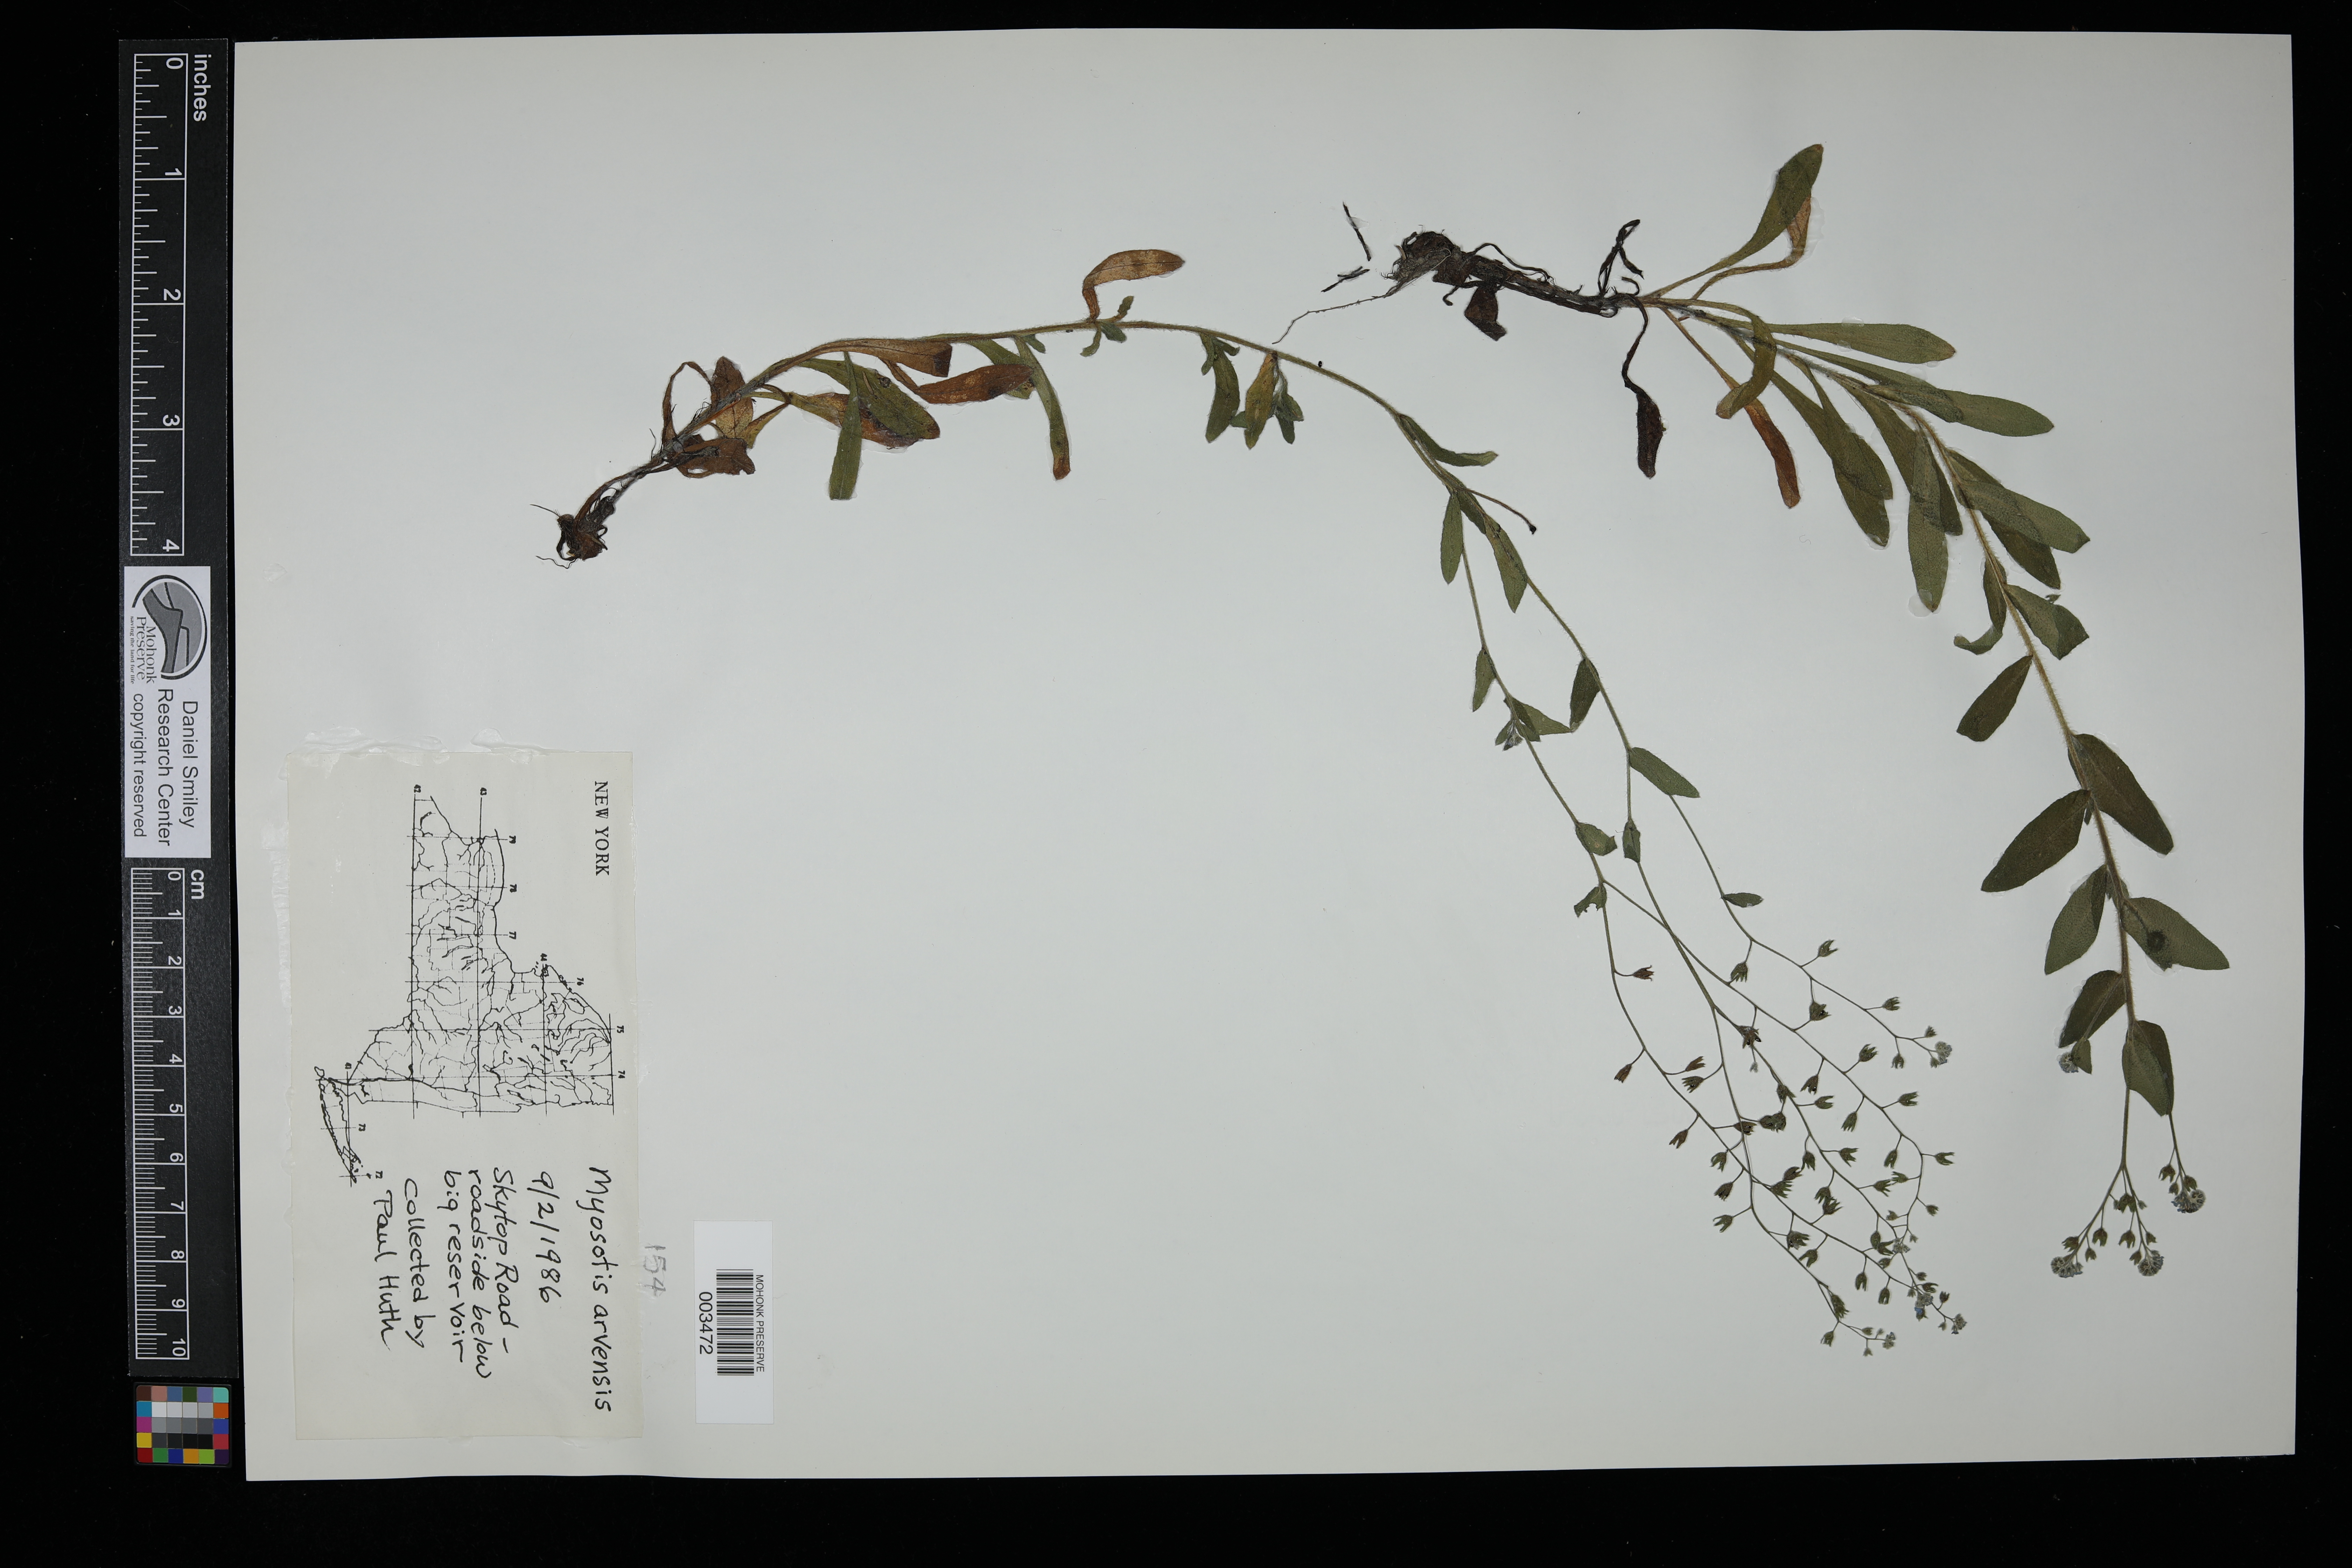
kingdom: Plantae
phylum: Tracheophyta
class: Magnoliopsida
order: Boraginales
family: Boraginaceae
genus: Myosotis
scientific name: Myosotis arvensis
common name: Field forget-me-not
